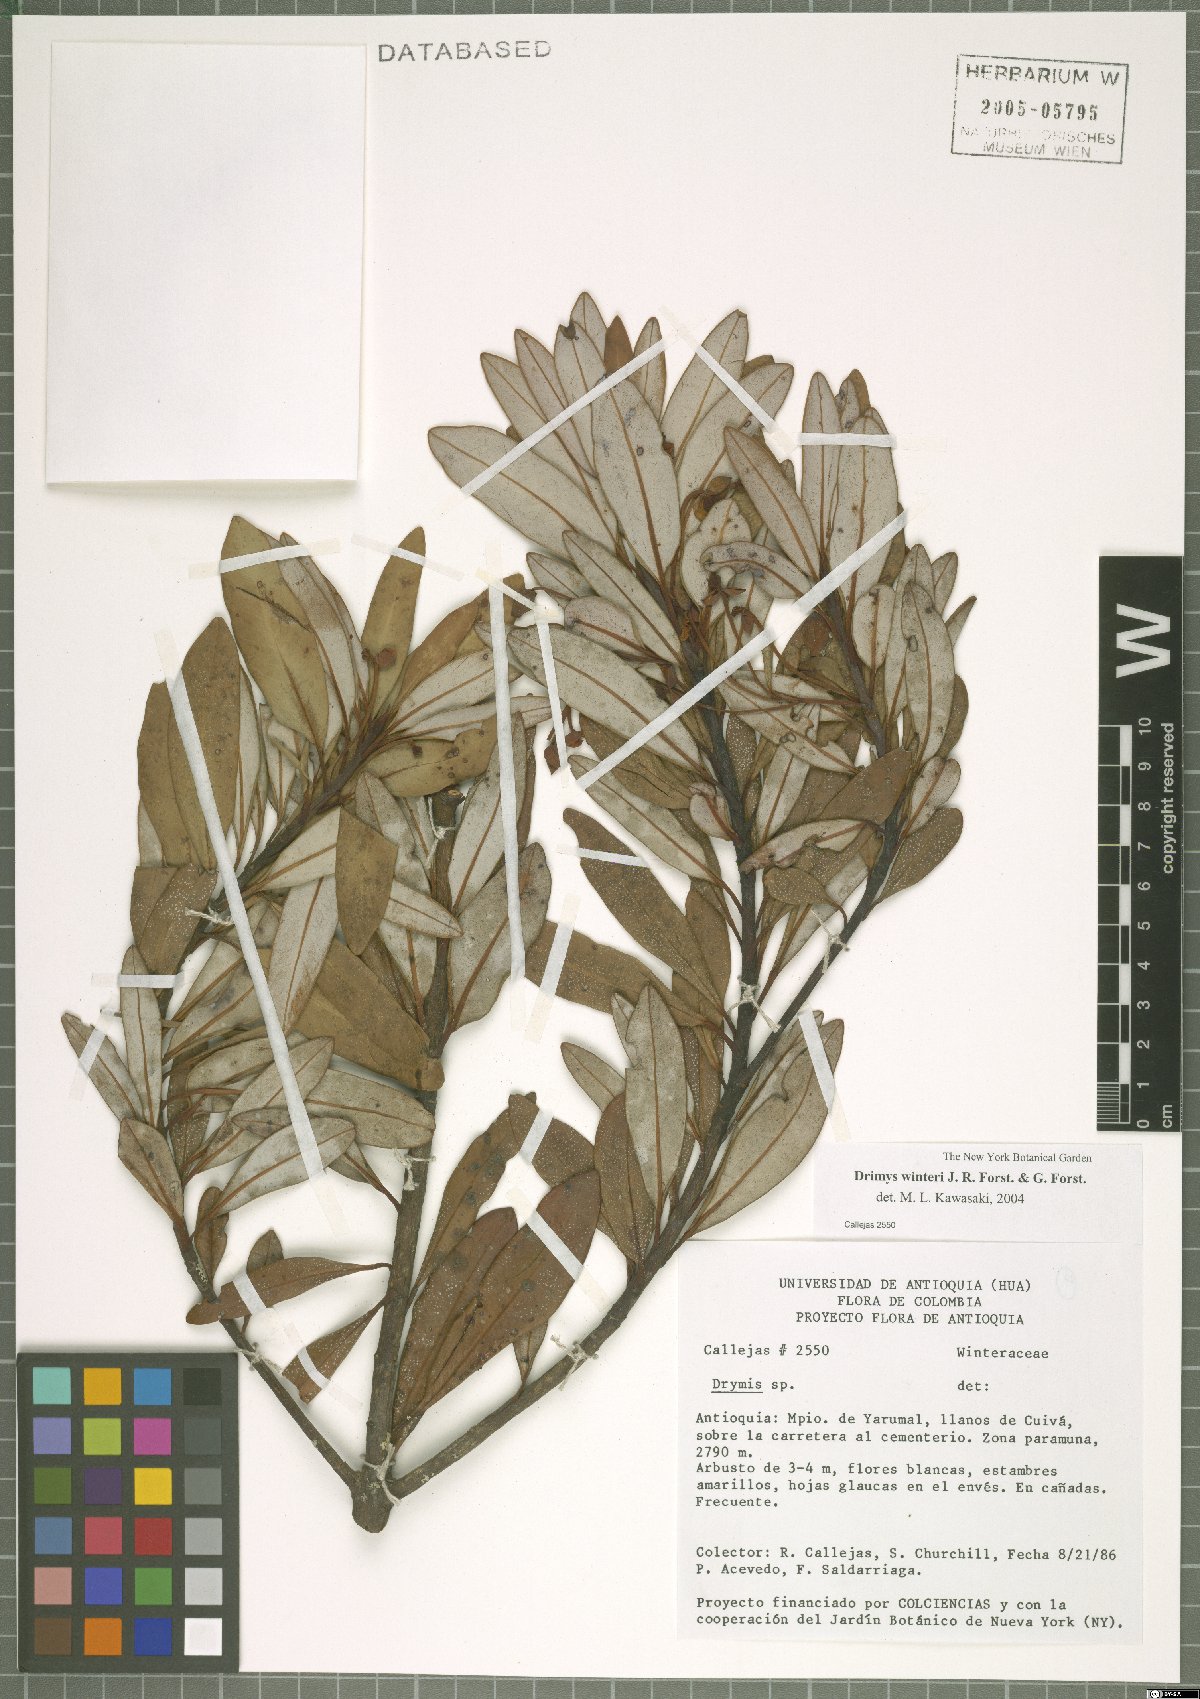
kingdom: Plantae
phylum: Tracheophyta
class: Magnoliopsida
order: Canellales
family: Winteraceae
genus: Drimys
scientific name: Drimys winteri
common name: Winter's-bark
